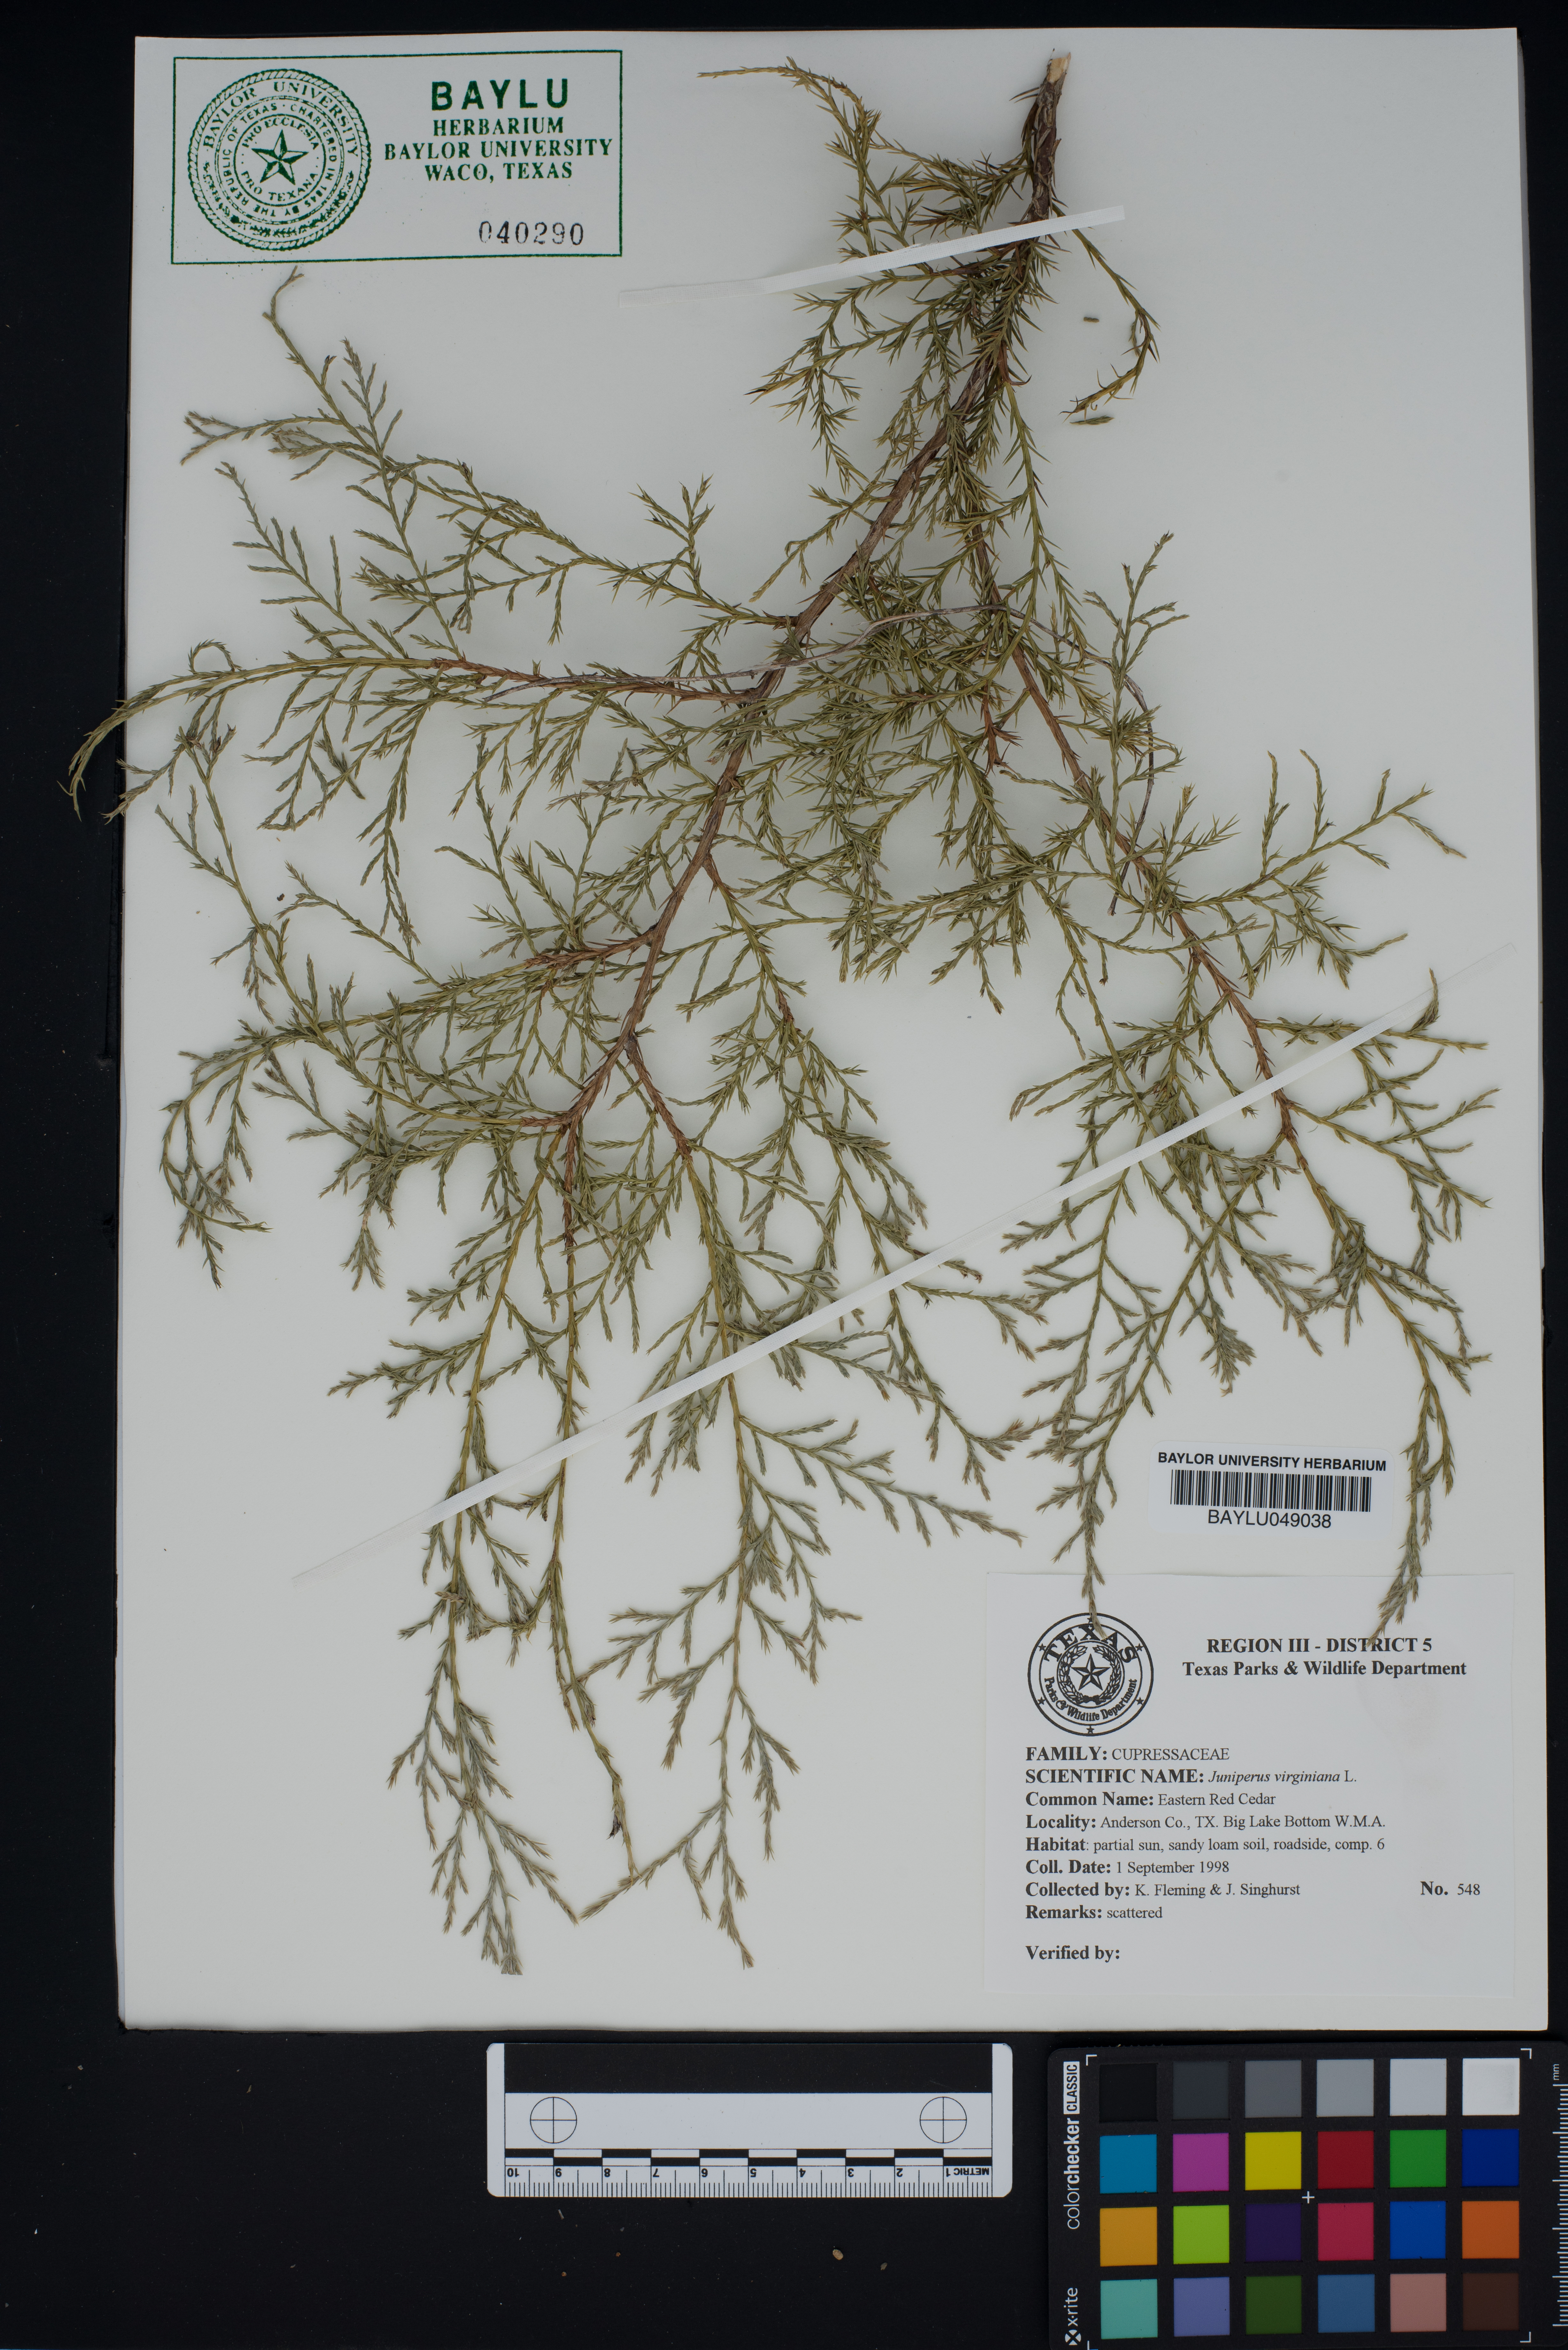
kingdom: Plantae
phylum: Tracheophyta
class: Pinopsida
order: Pinales
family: Cupressaceae
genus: Juniperus
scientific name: Juniperus virginiana
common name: Red juniper
